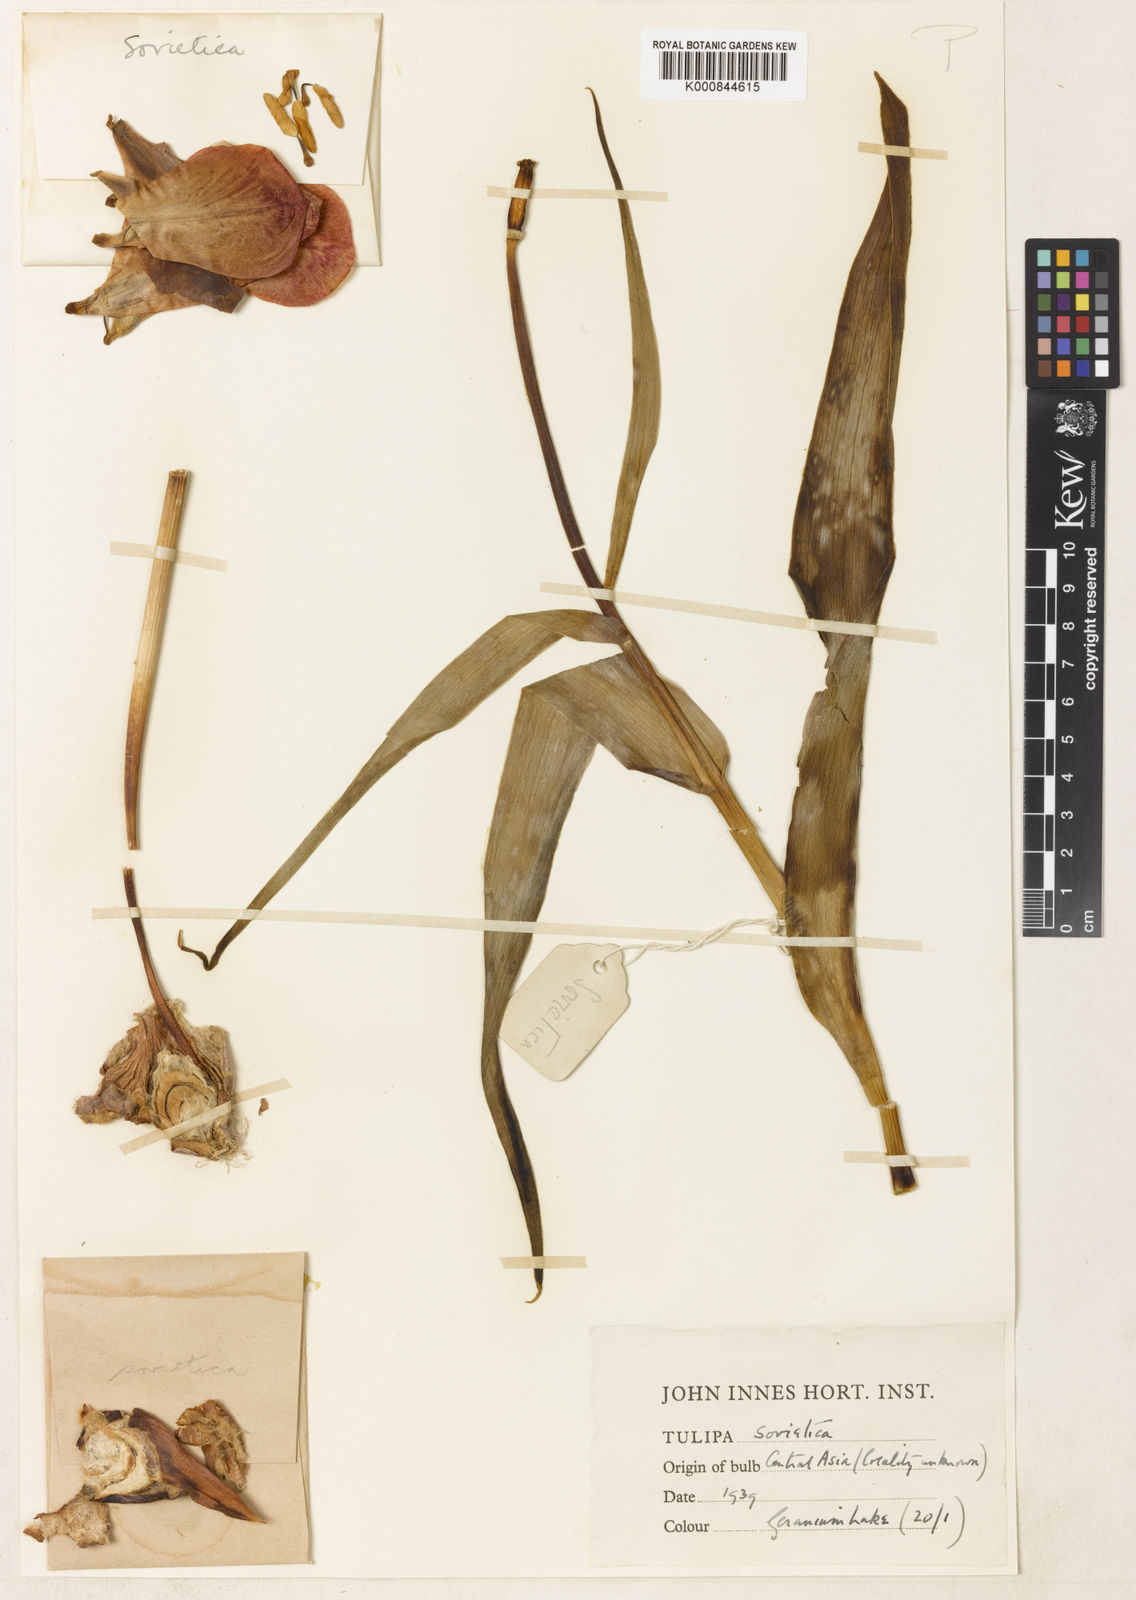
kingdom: Plantae
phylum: Tracheophyta
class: Liliopsida
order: Liliales
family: Liliaceae
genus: Tulipa
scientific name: Tulipa hoogiana
